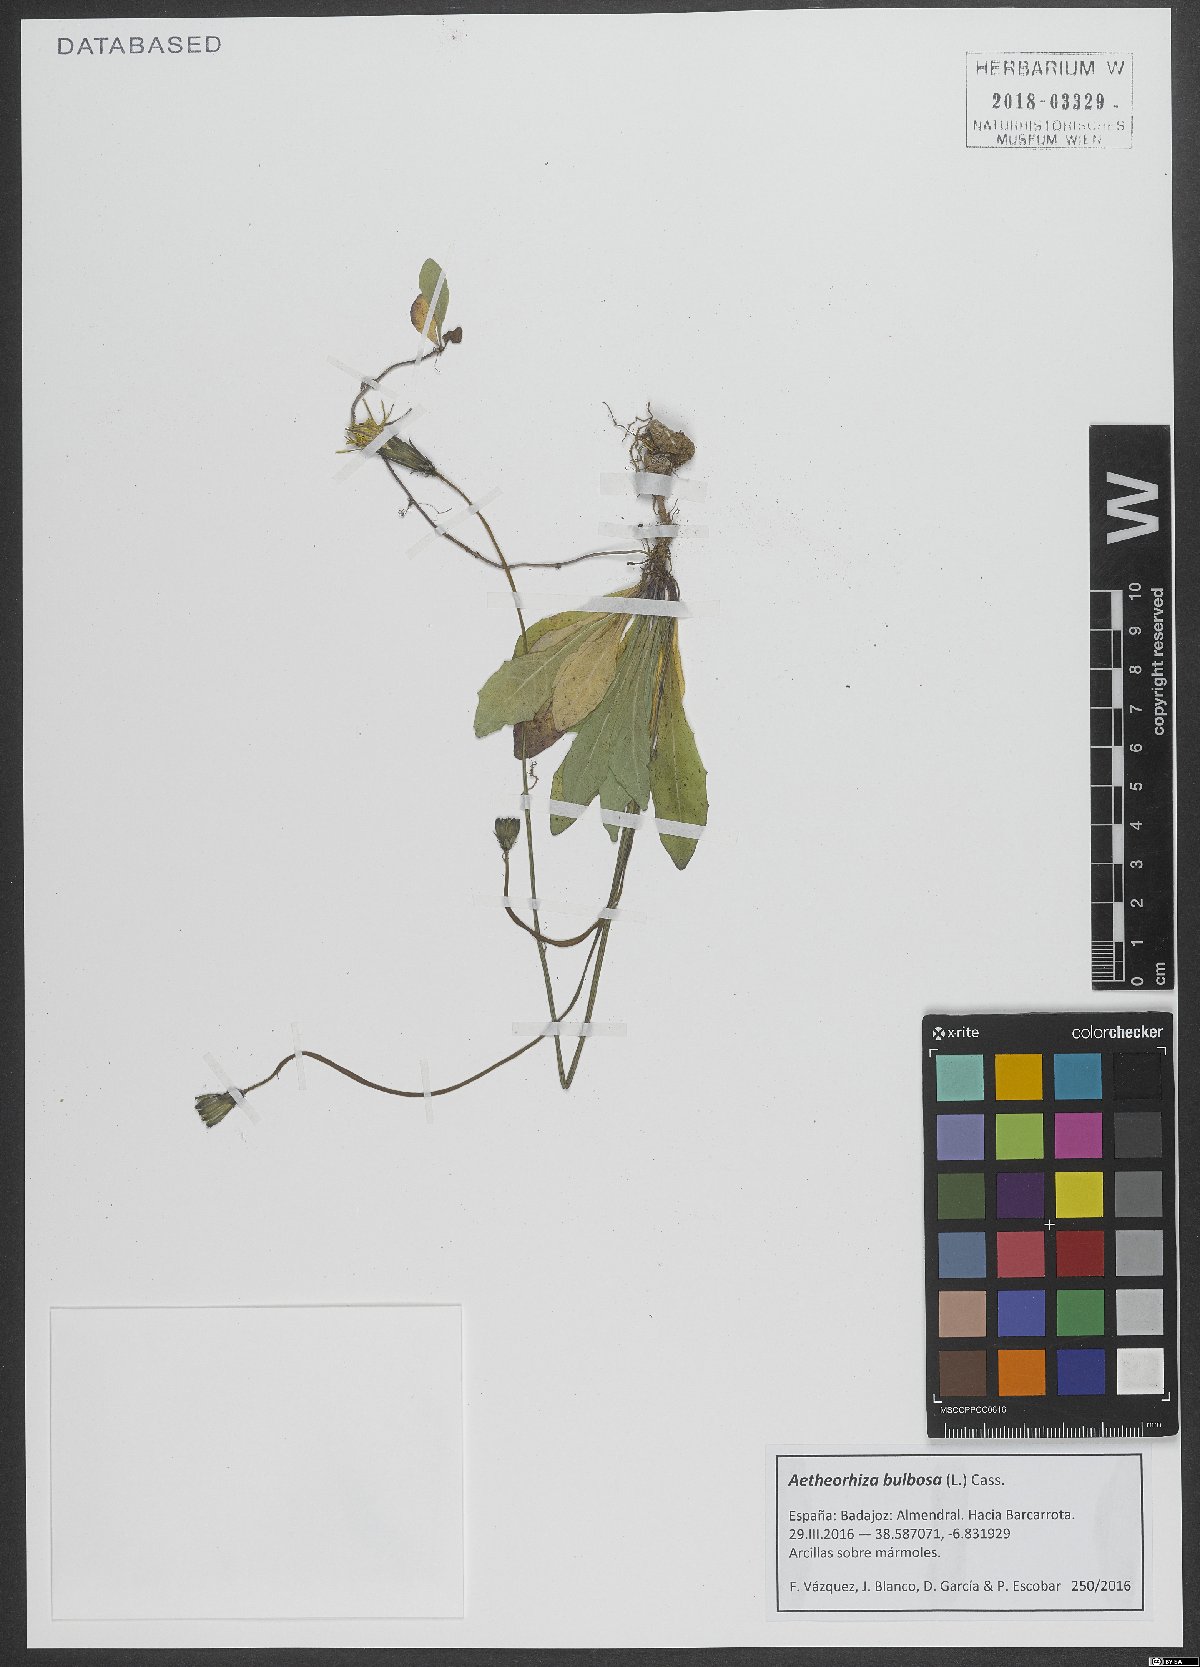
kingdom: Plantae
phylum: Tracheophyta
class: Magnoliopsida
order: Asterales
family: Asteraceae
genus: Aetheorhiza
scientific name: Aetheorhiza bulbosa
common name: Tuberous hawk's-beard
